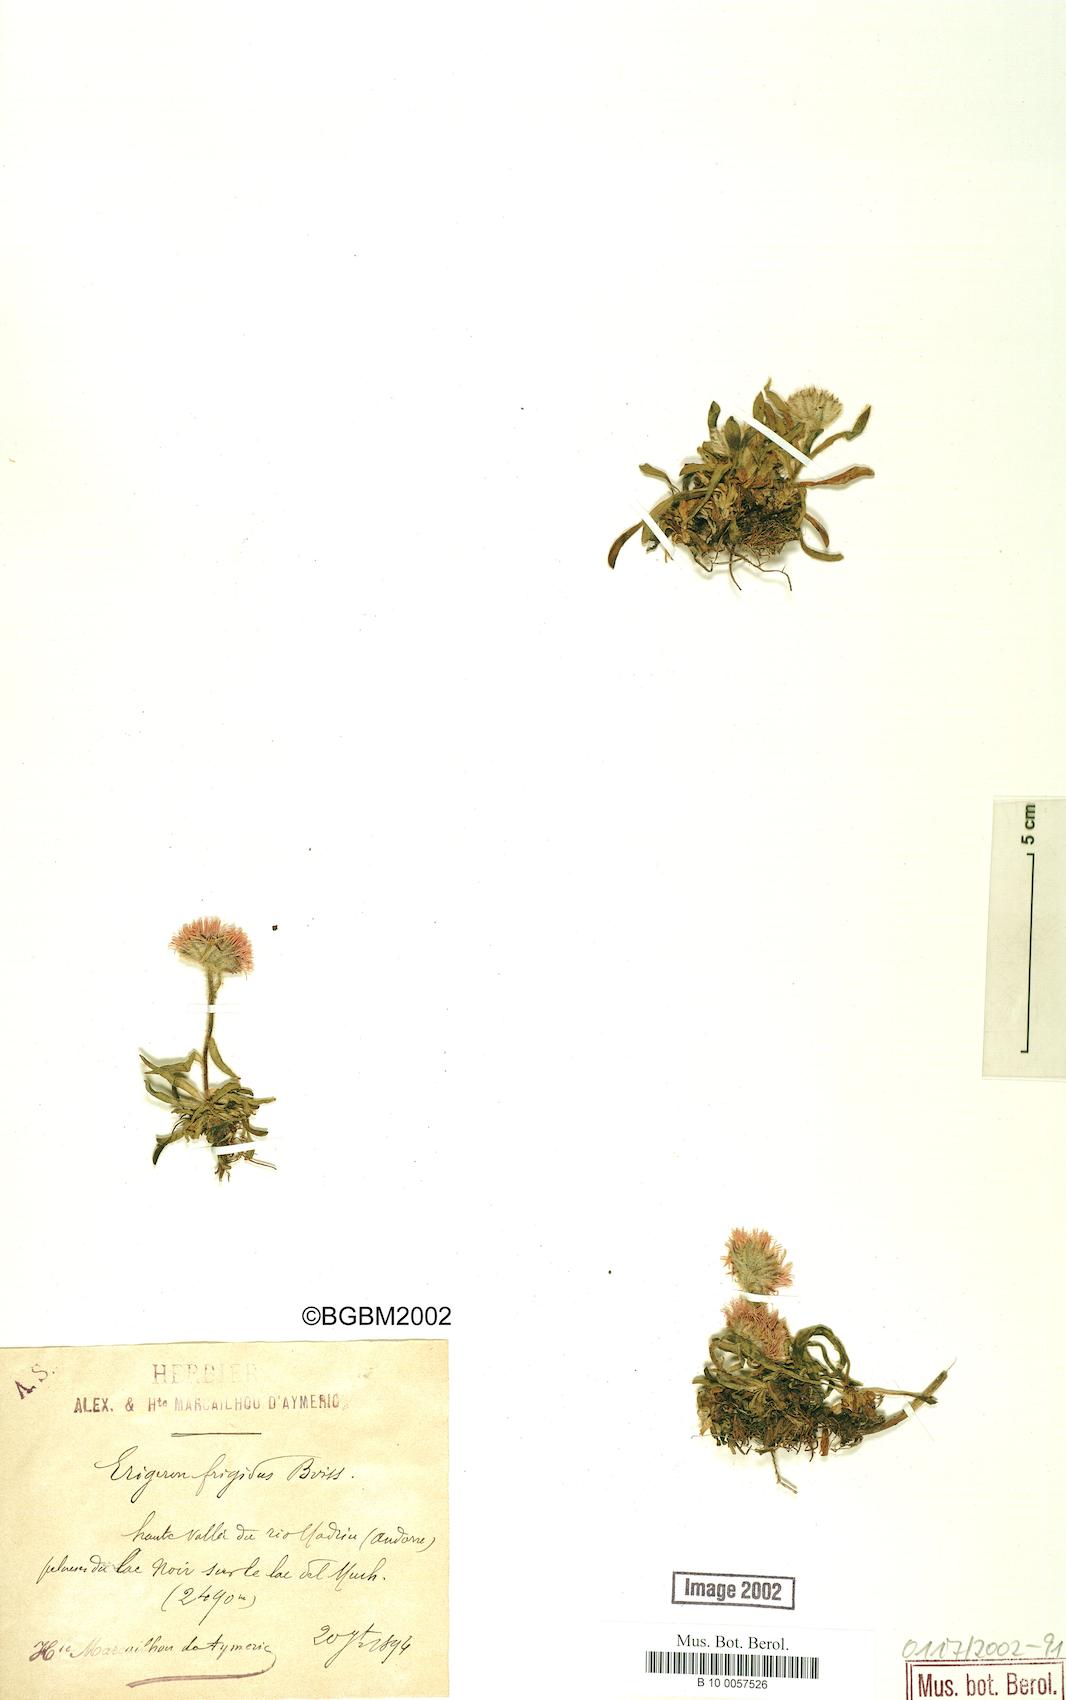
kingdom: Plantae
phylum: Tracheophyta
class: Magnoliopsida
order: Asterales
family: Asteraceae
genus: Erigeron
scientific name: Erigeron aragonensis
